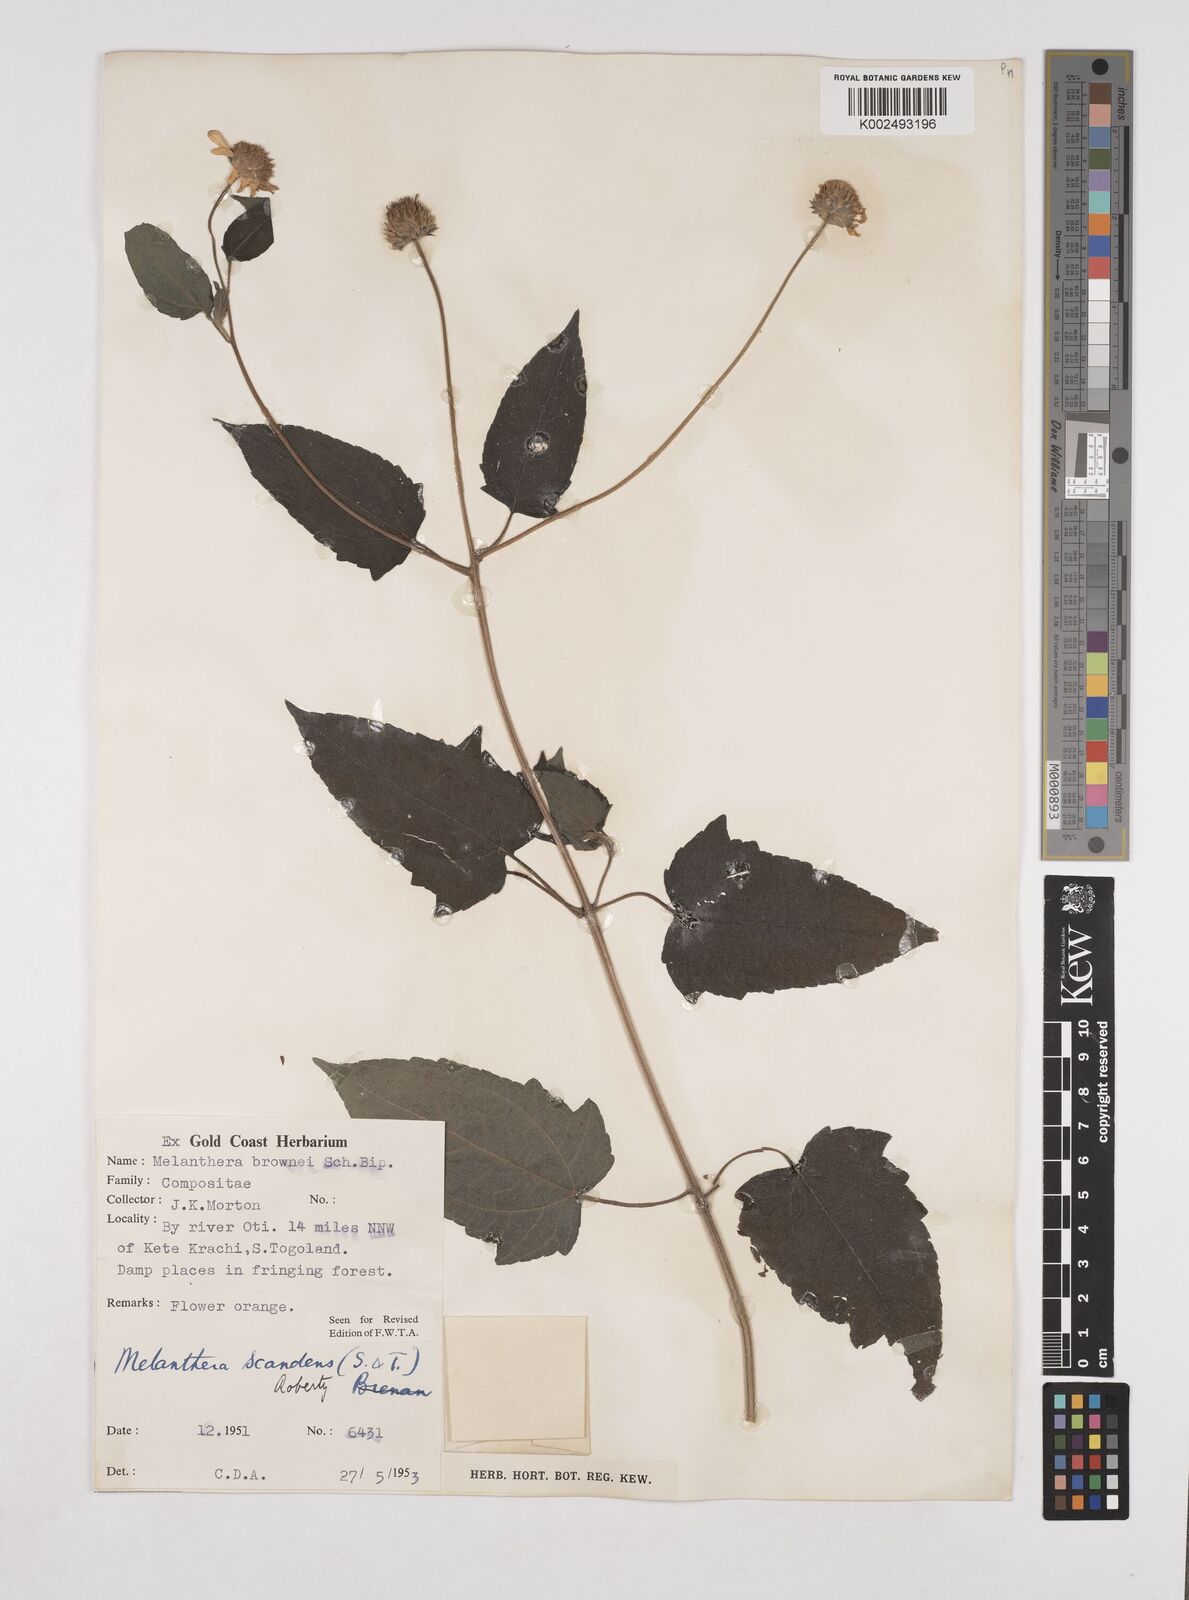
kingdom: Plantae
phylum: Tracheophyta
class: Magnoliopsida
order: Asterales
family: Asteraceae
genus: Lipotriche
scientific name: Lipotriche scandens
